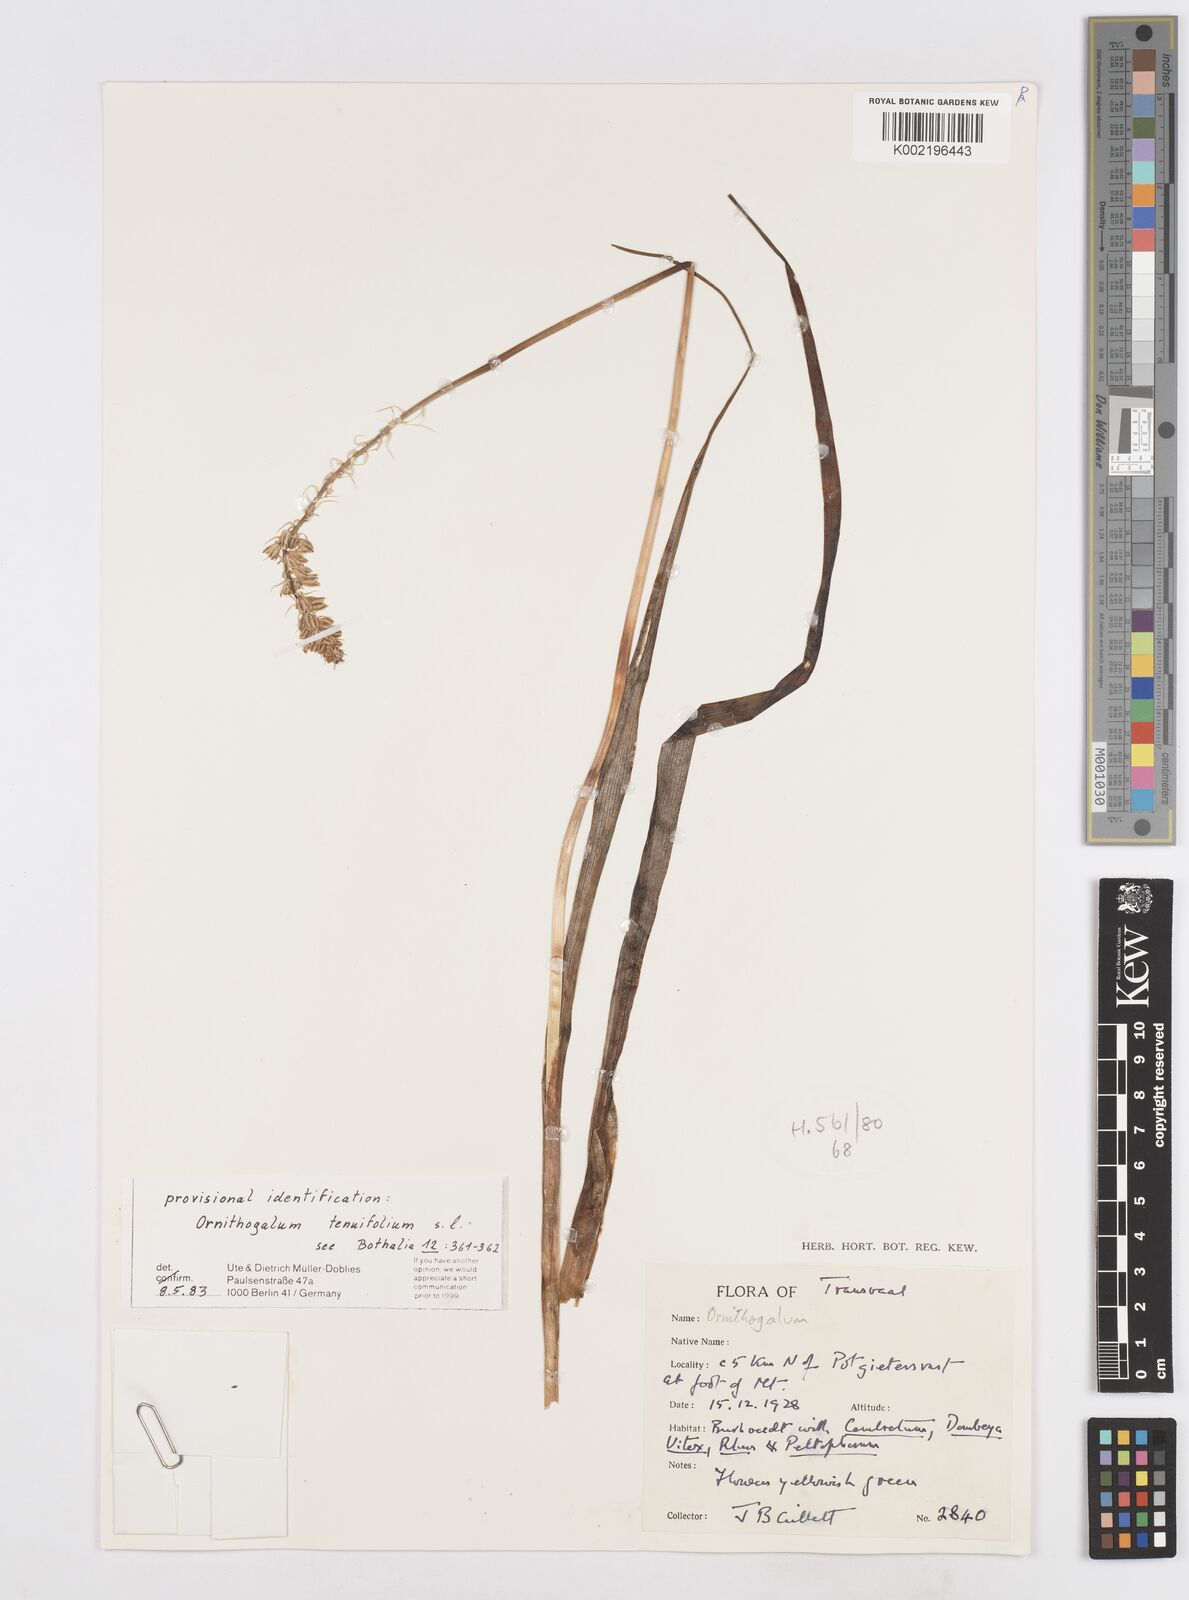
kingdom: Plantae
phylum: Tracheophyta
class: Liliopsida
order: Asparagales
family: Asparagaceae
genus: Albuca
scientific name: Albuca virens
